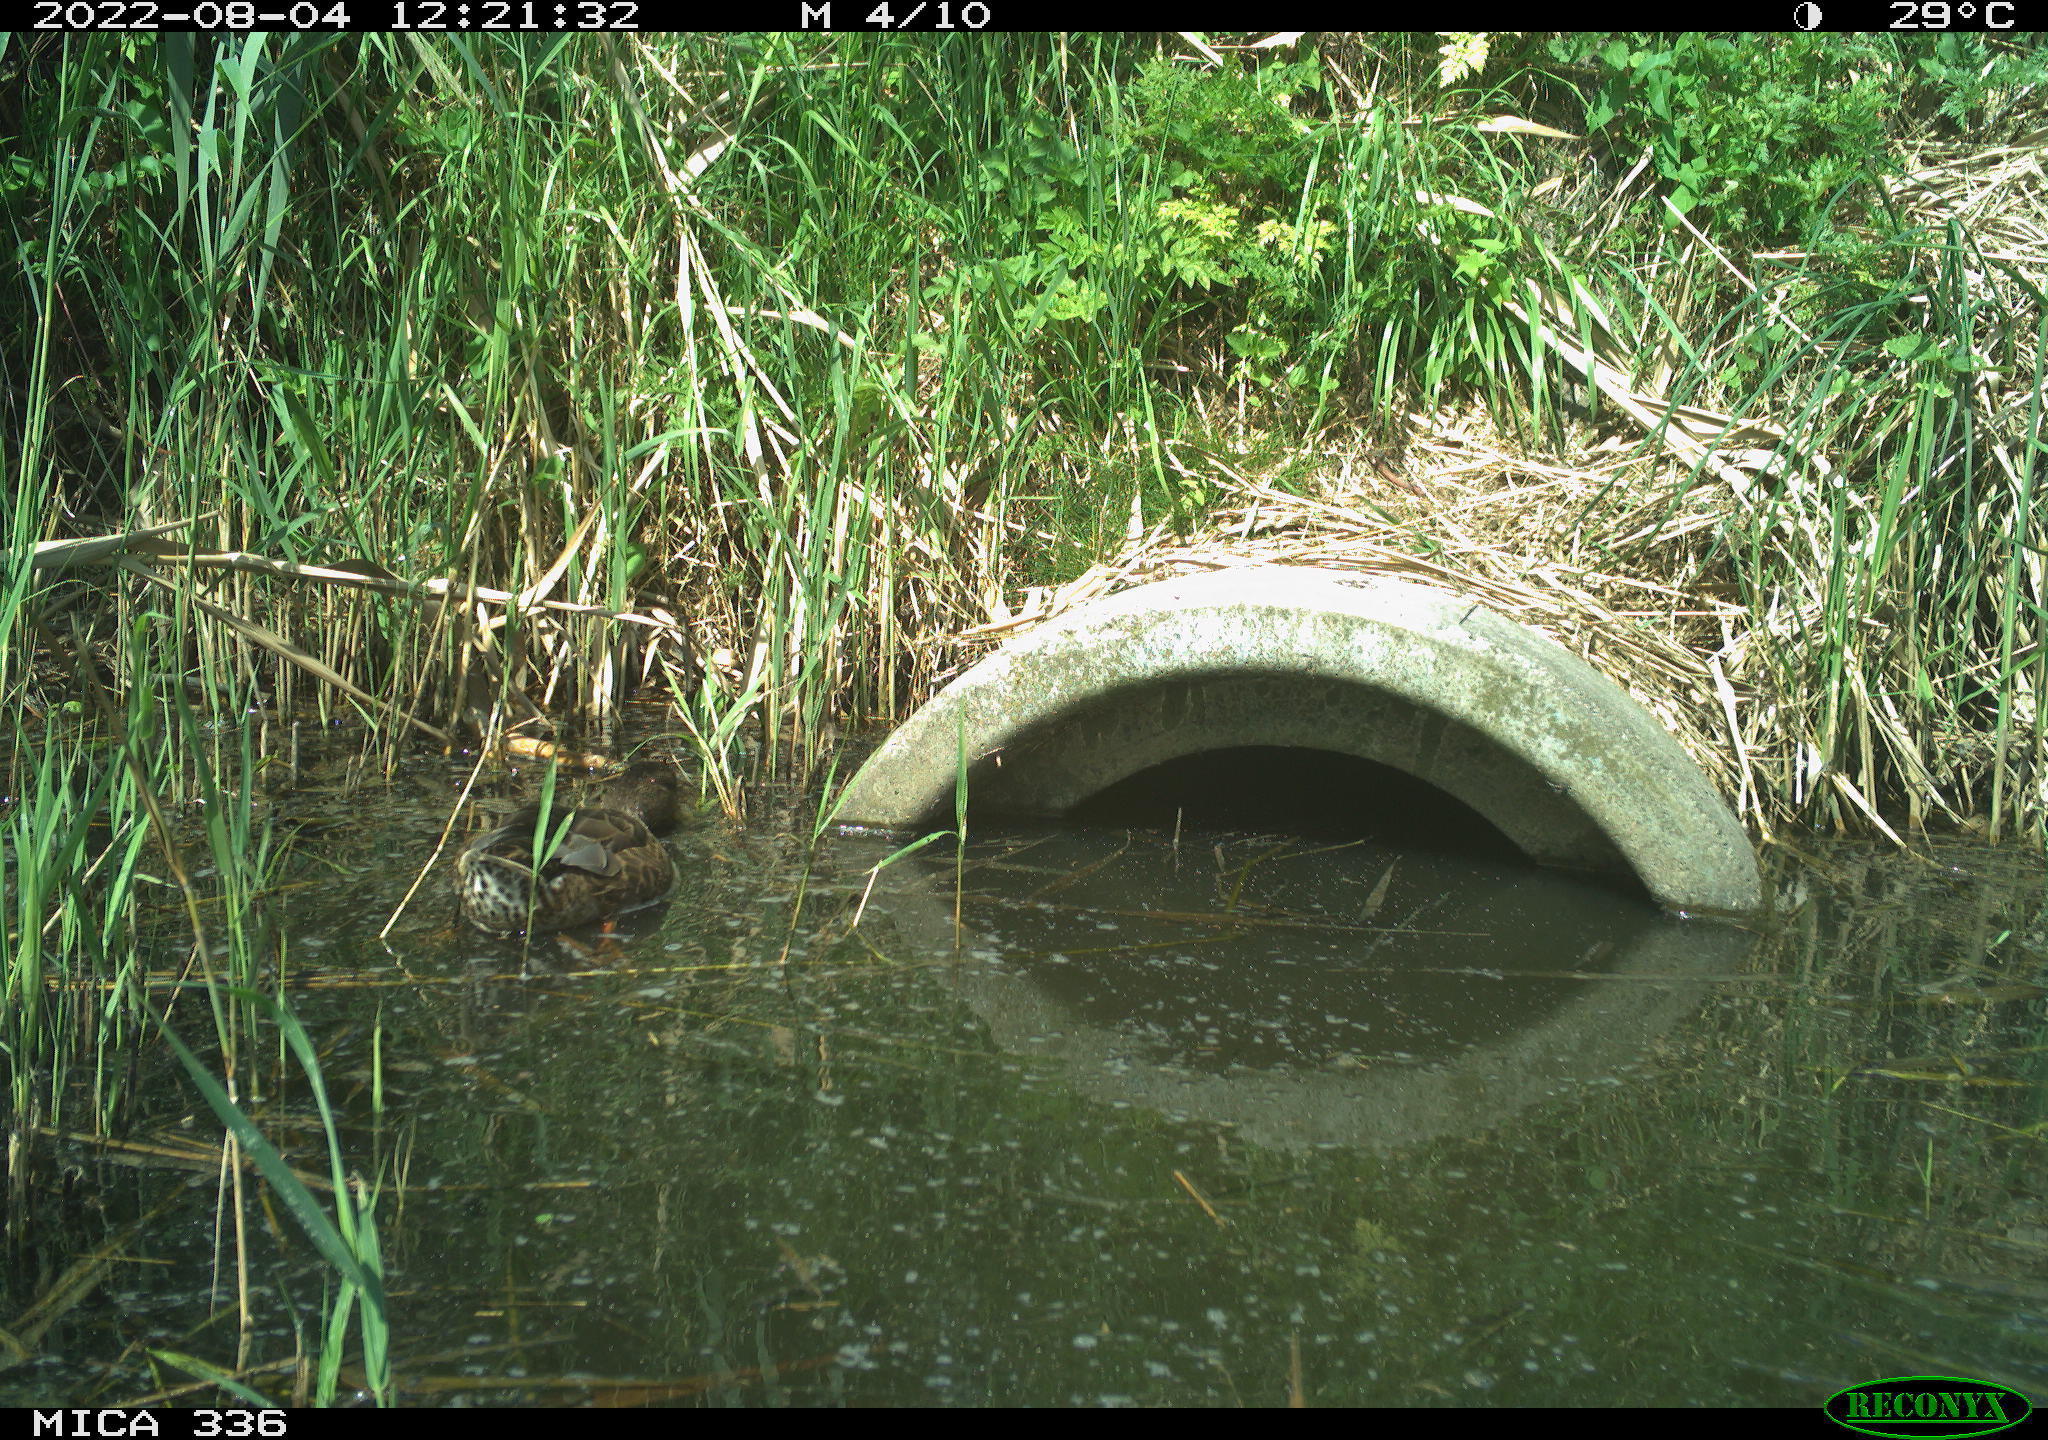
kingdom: Animalia
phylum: Chordata
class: Aves
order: Anseriformes
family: Anatidae
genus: Mareca
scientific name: Mareca strepera
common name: Gadwall
